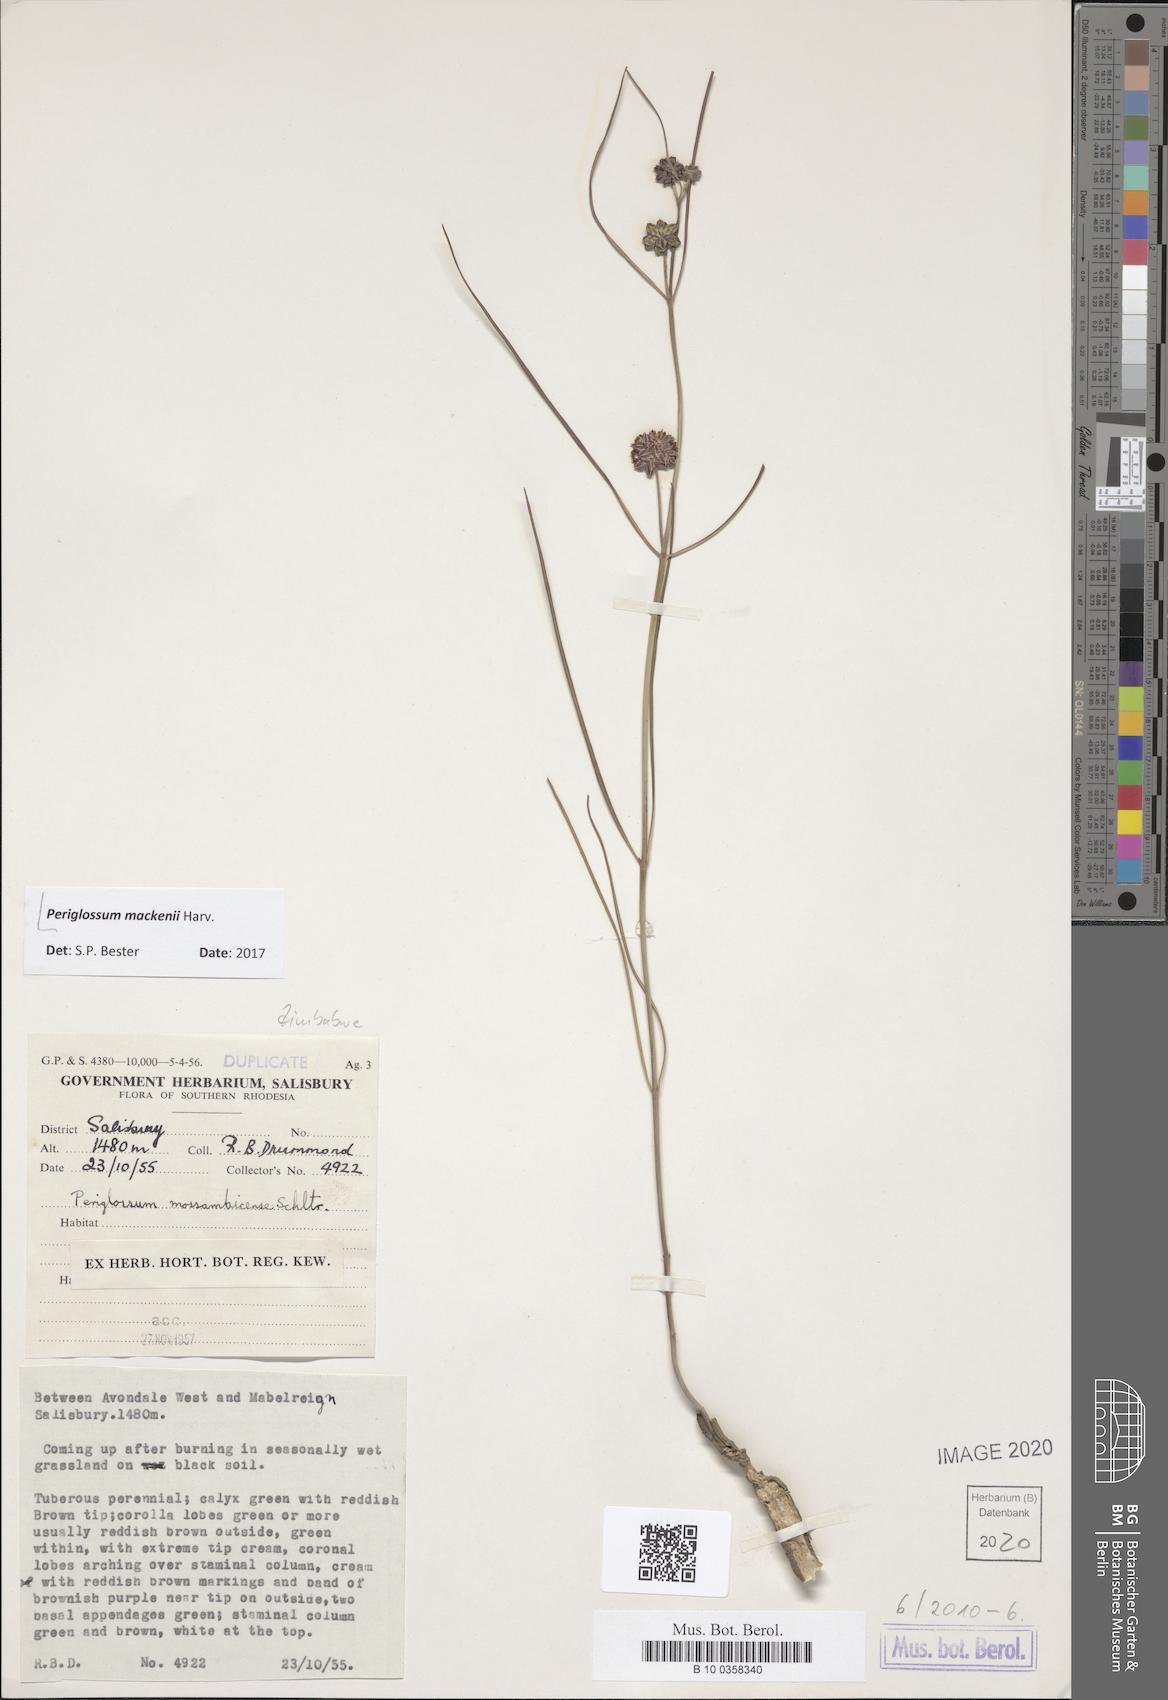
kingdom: Plantae
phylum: Tracheophyta
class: Magnoliopsida
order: Gentianales
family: Apocynaceae
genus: Sisyranthus
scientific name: Sisyranthus macer
